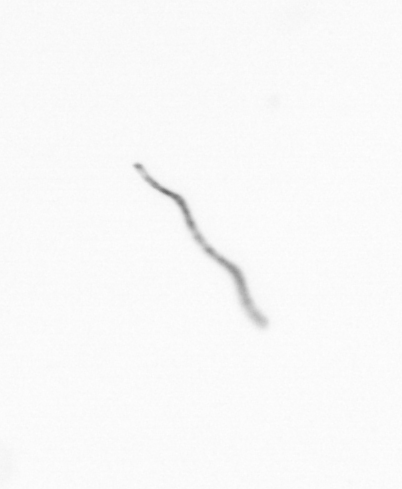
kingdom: Chromista
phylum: Ochrophyta
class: Bacillariophyceae
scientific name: Bacillariophyceae
